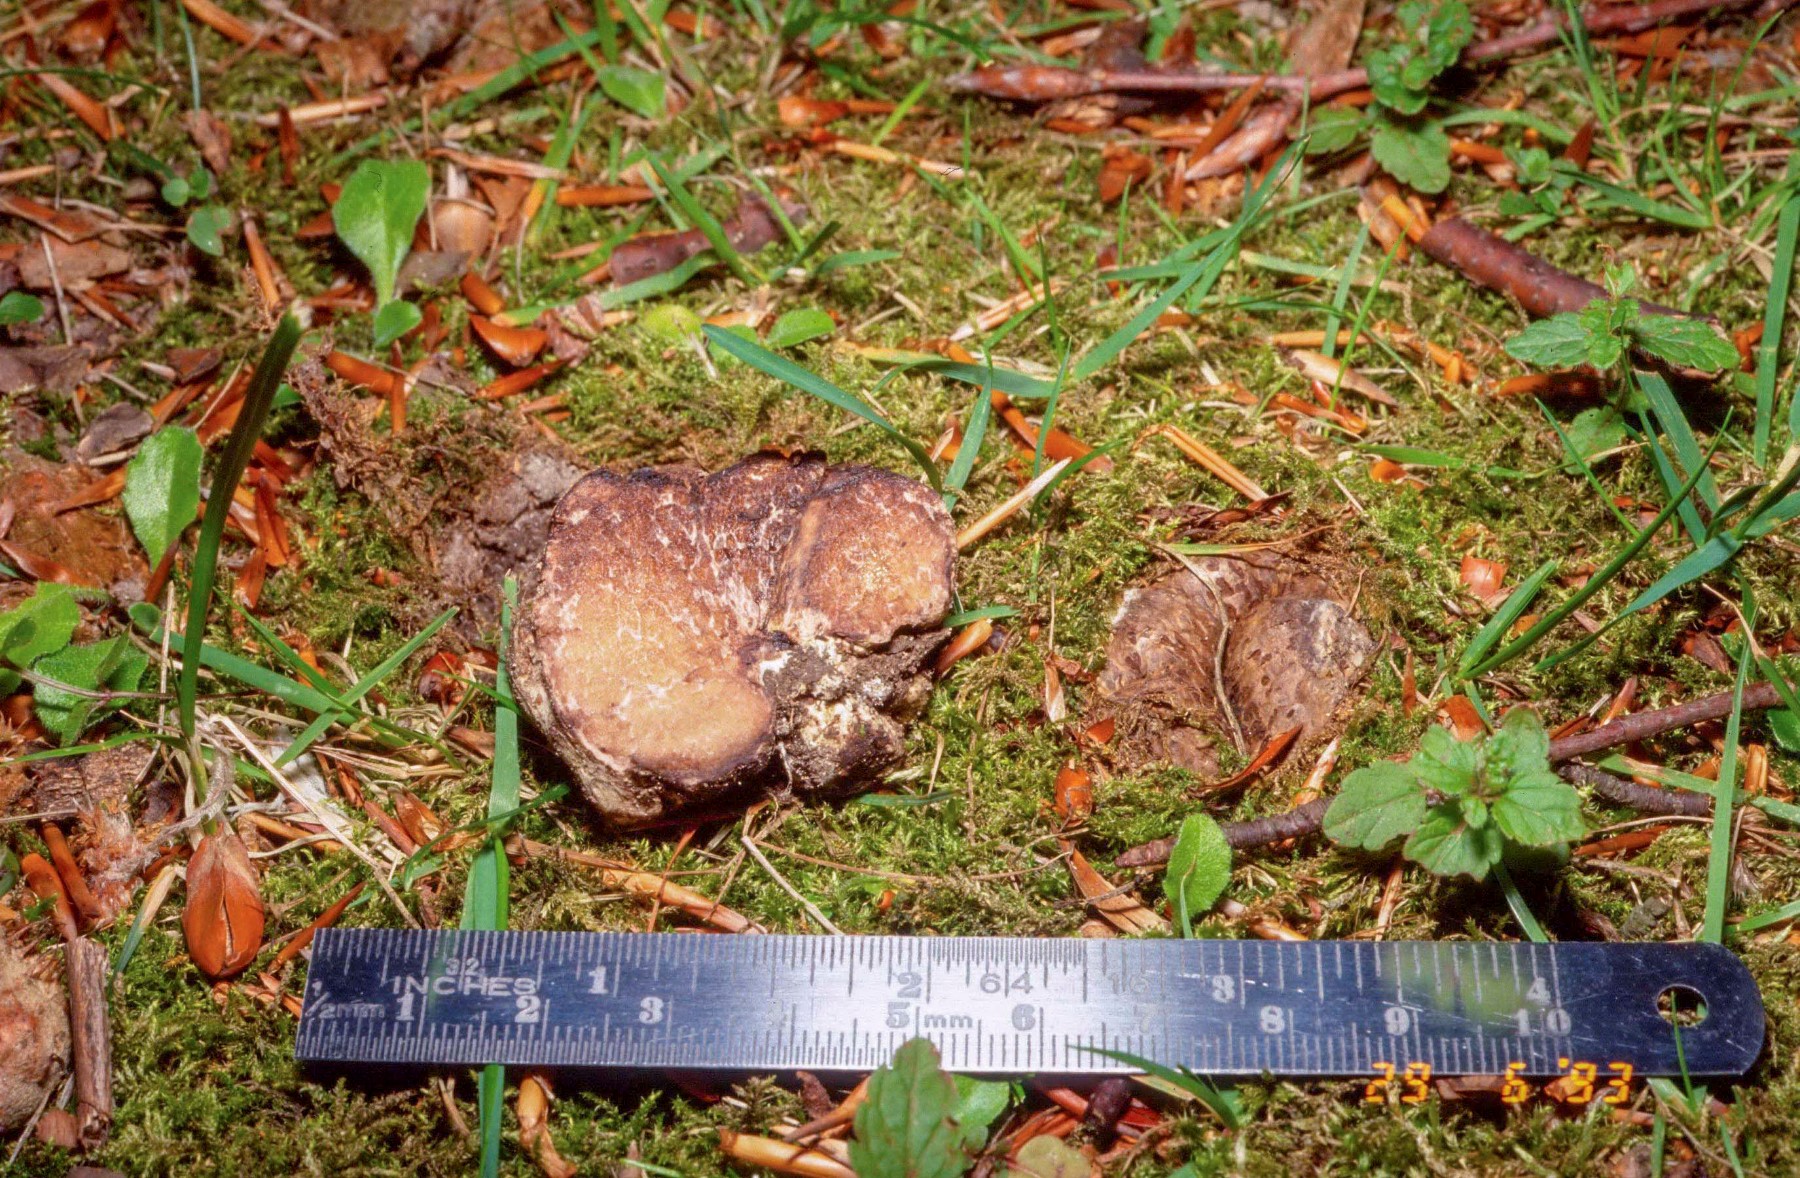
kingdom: Fungi
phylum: Basidiomycota
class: Agaricomycetes
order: Boletales
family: Boletaceae
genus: Octaviania
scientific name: Octaviania
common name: løvtrøffel
